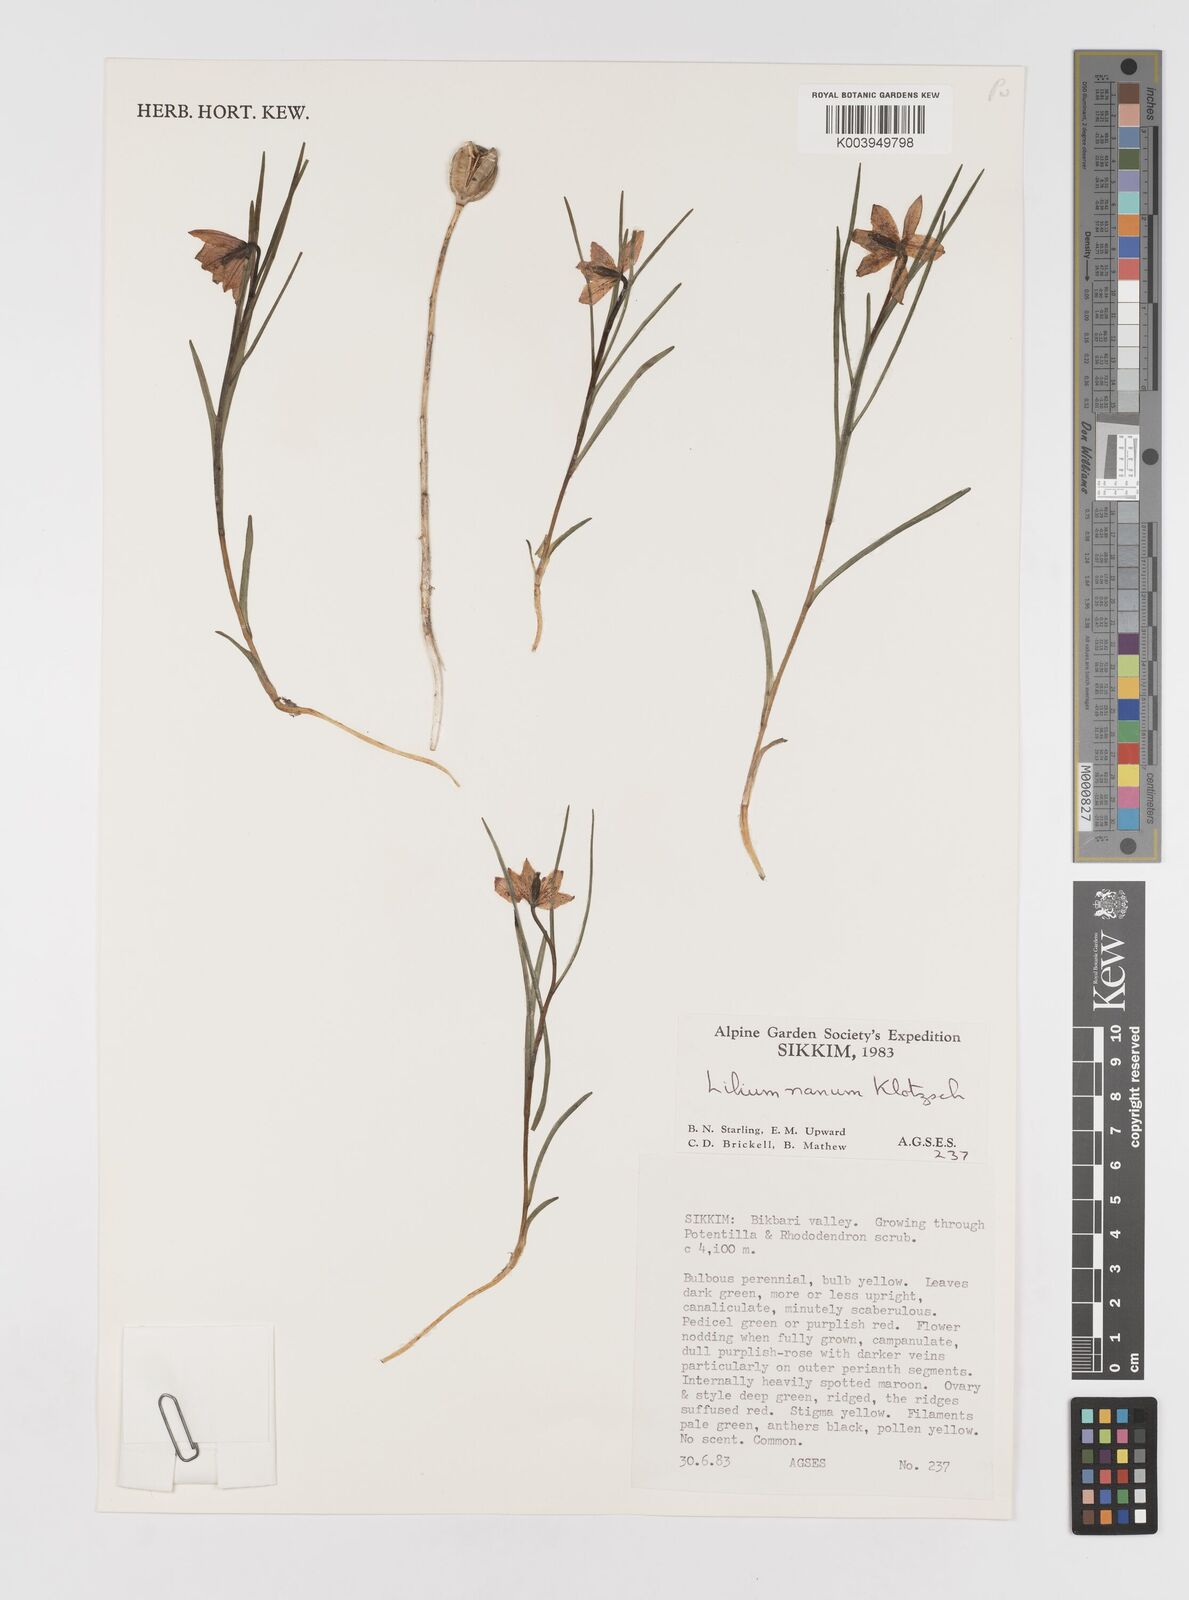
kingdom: Plantae
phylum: Tracheophyta
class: Liliopsida
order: Liliales
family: Liliaceae
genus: Lilium
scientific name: Lilium nanum
